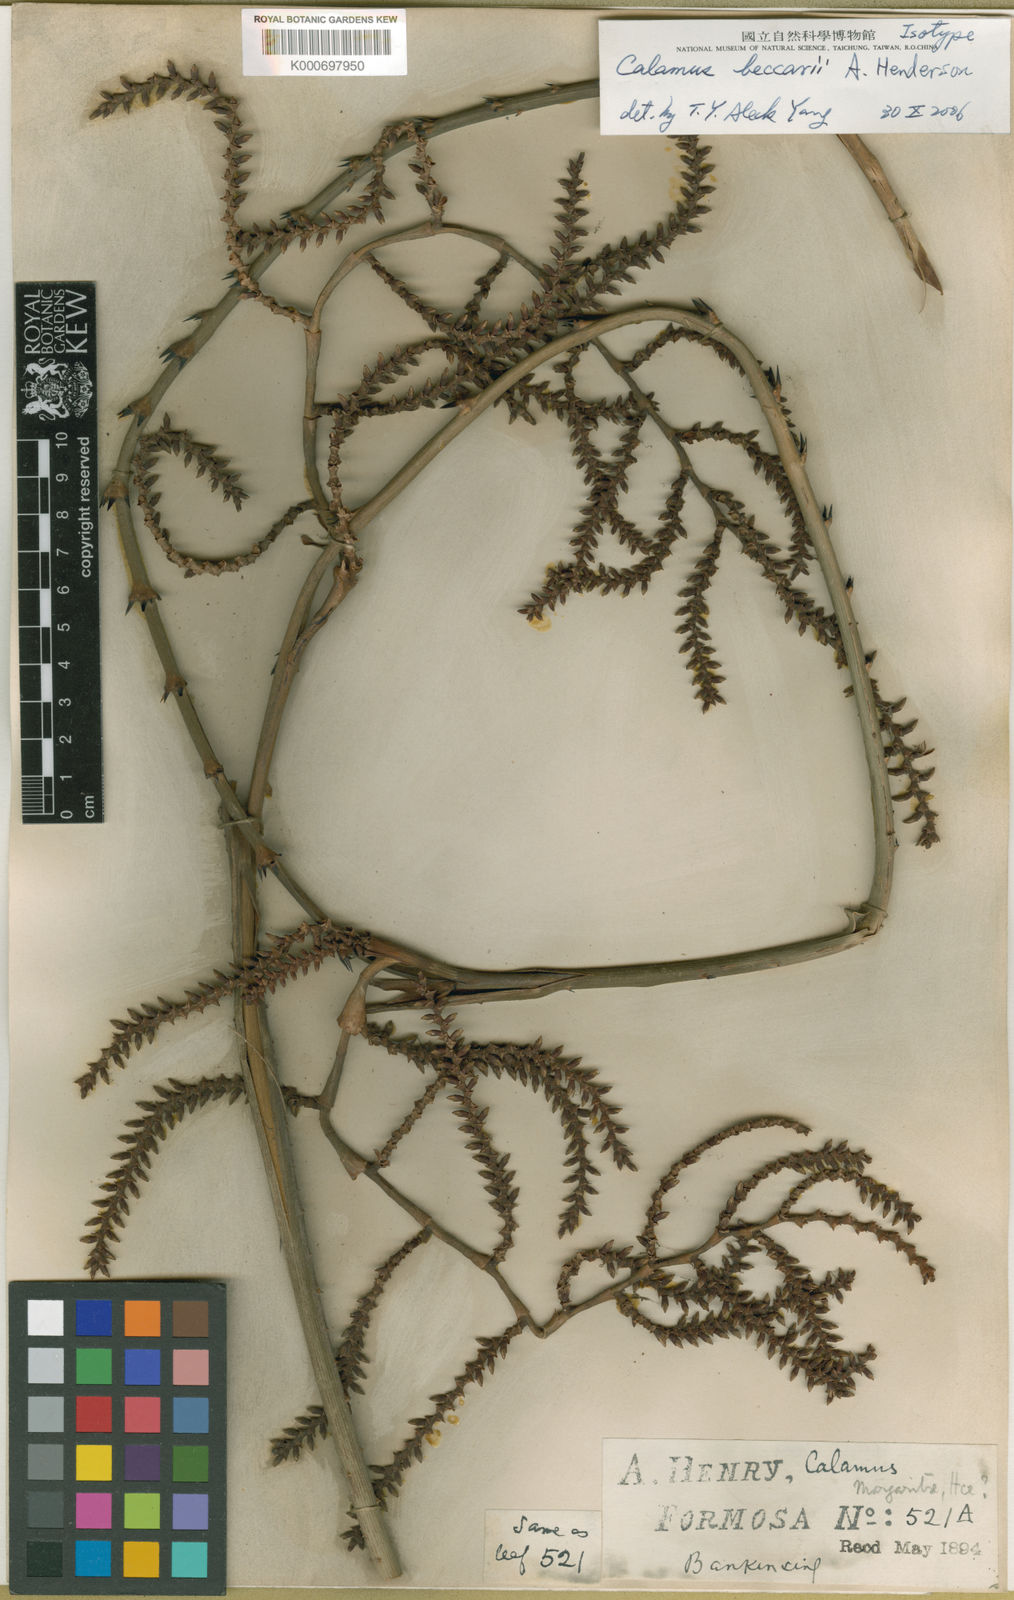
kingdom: Plantae
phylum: Tracheophyta
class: Liliopsida
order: Arecales
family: Arecaceae
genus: Calamus
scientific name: Calamus beccarii
